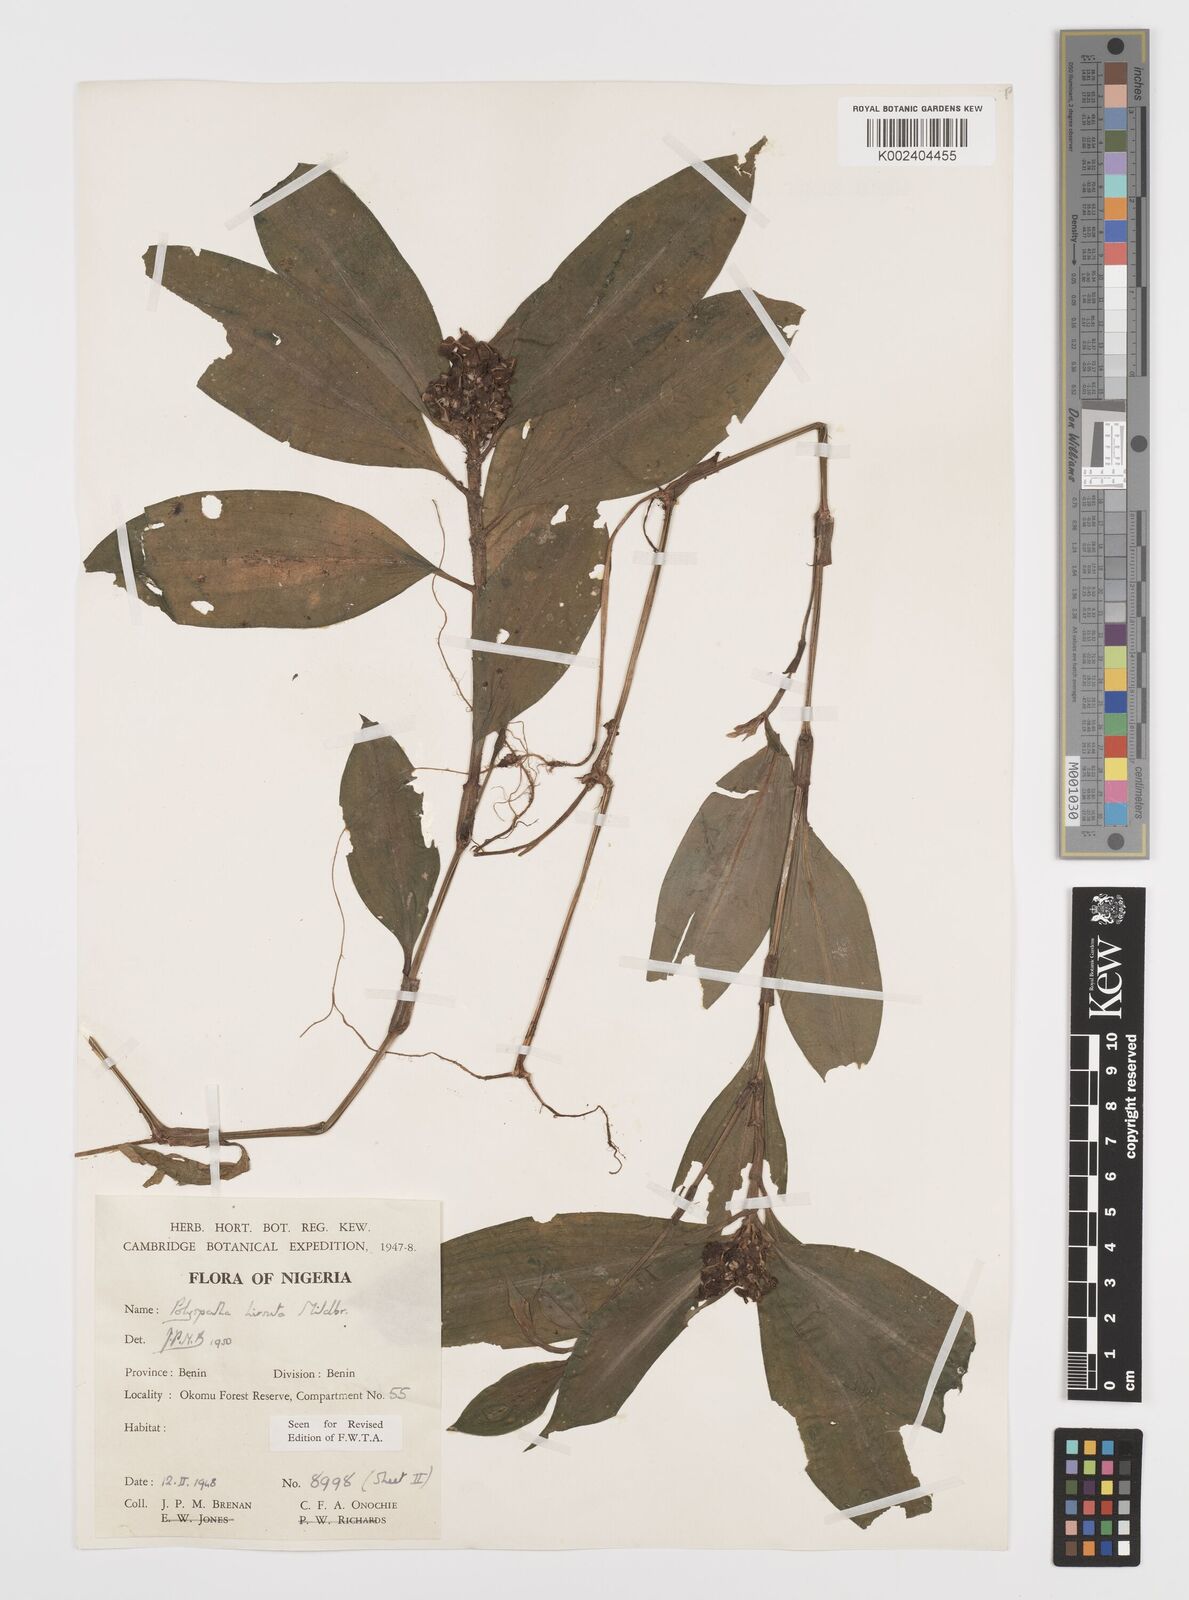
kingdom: Plantae
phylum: Tracheophyta
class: Liliopsida
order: Commelinales
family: Commelinaceae
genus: Polyspatha
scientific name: Polyspatha hirsuta
